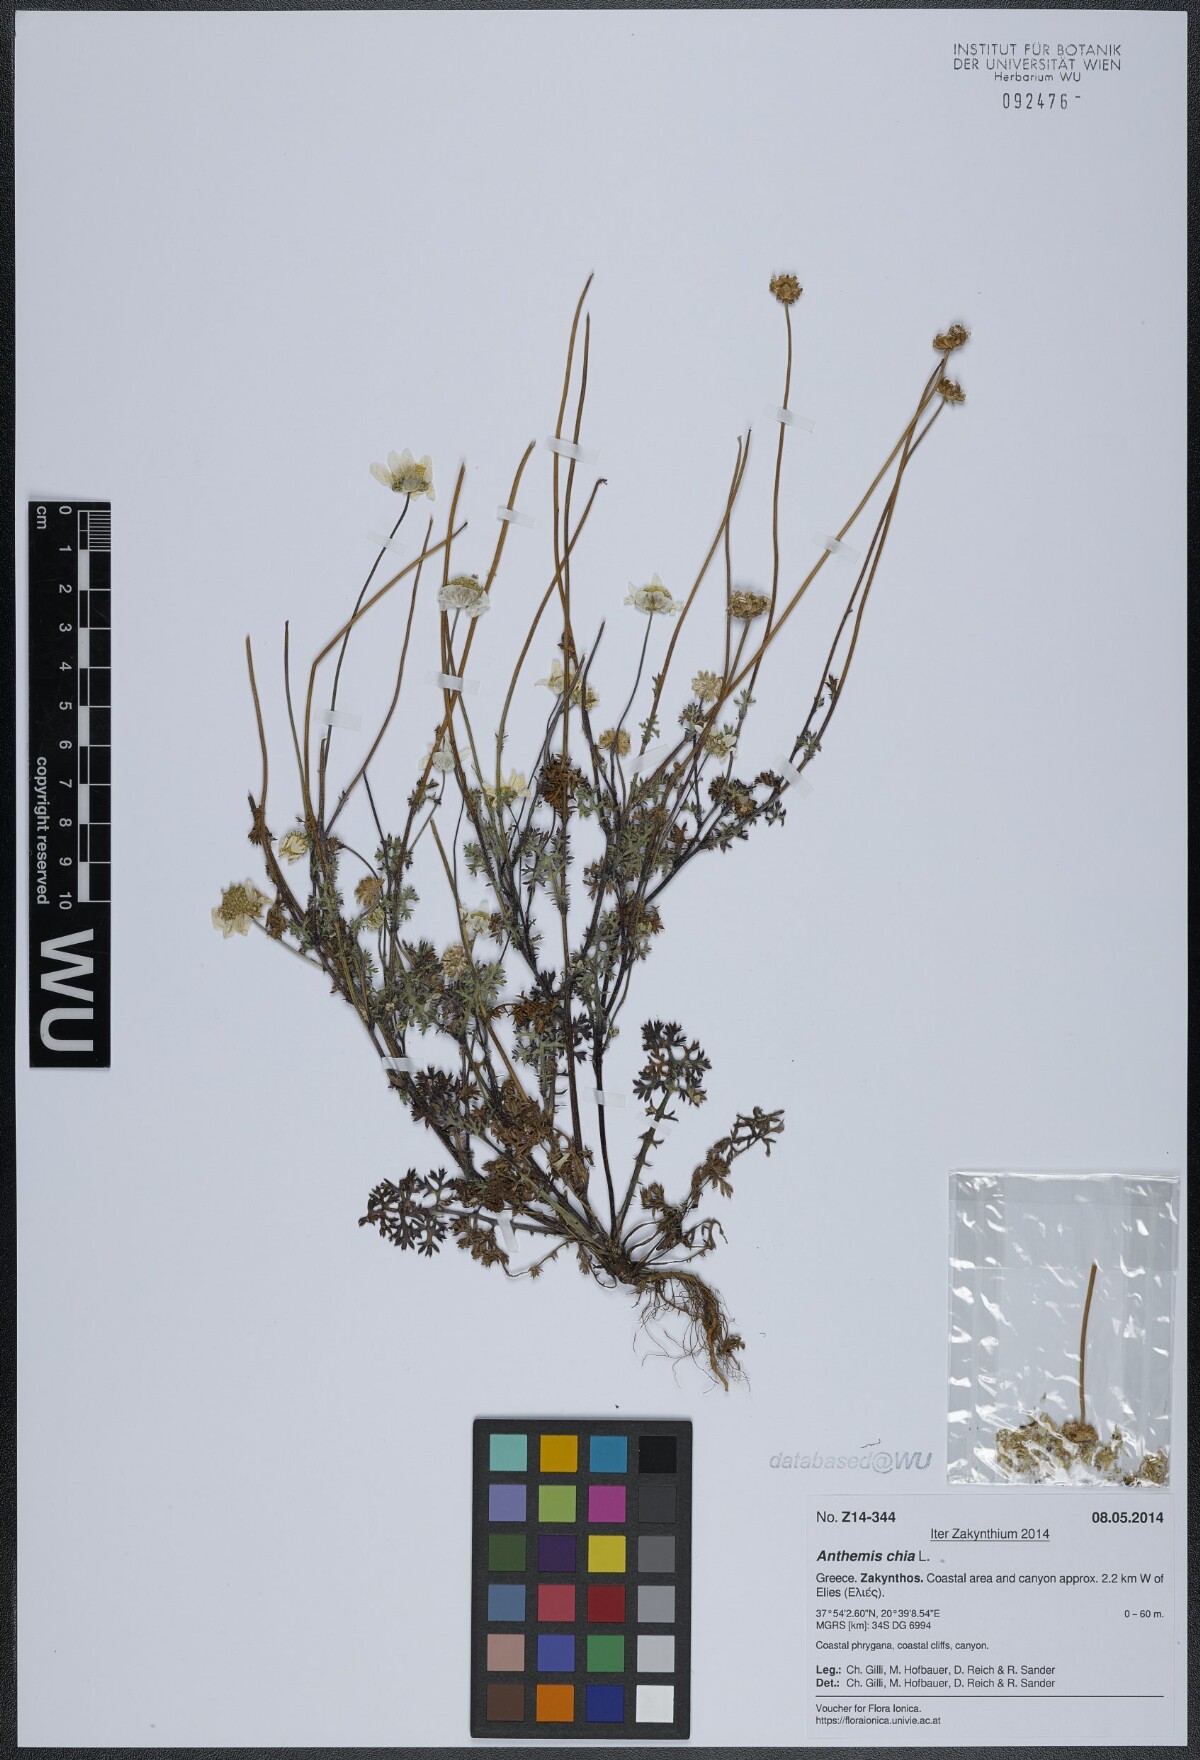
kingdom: Plantae
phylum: Tracheophyta
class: Magnoliopsida
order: Asterales
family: Asteraceae
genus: Anthemis
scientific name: Anthemis chia
